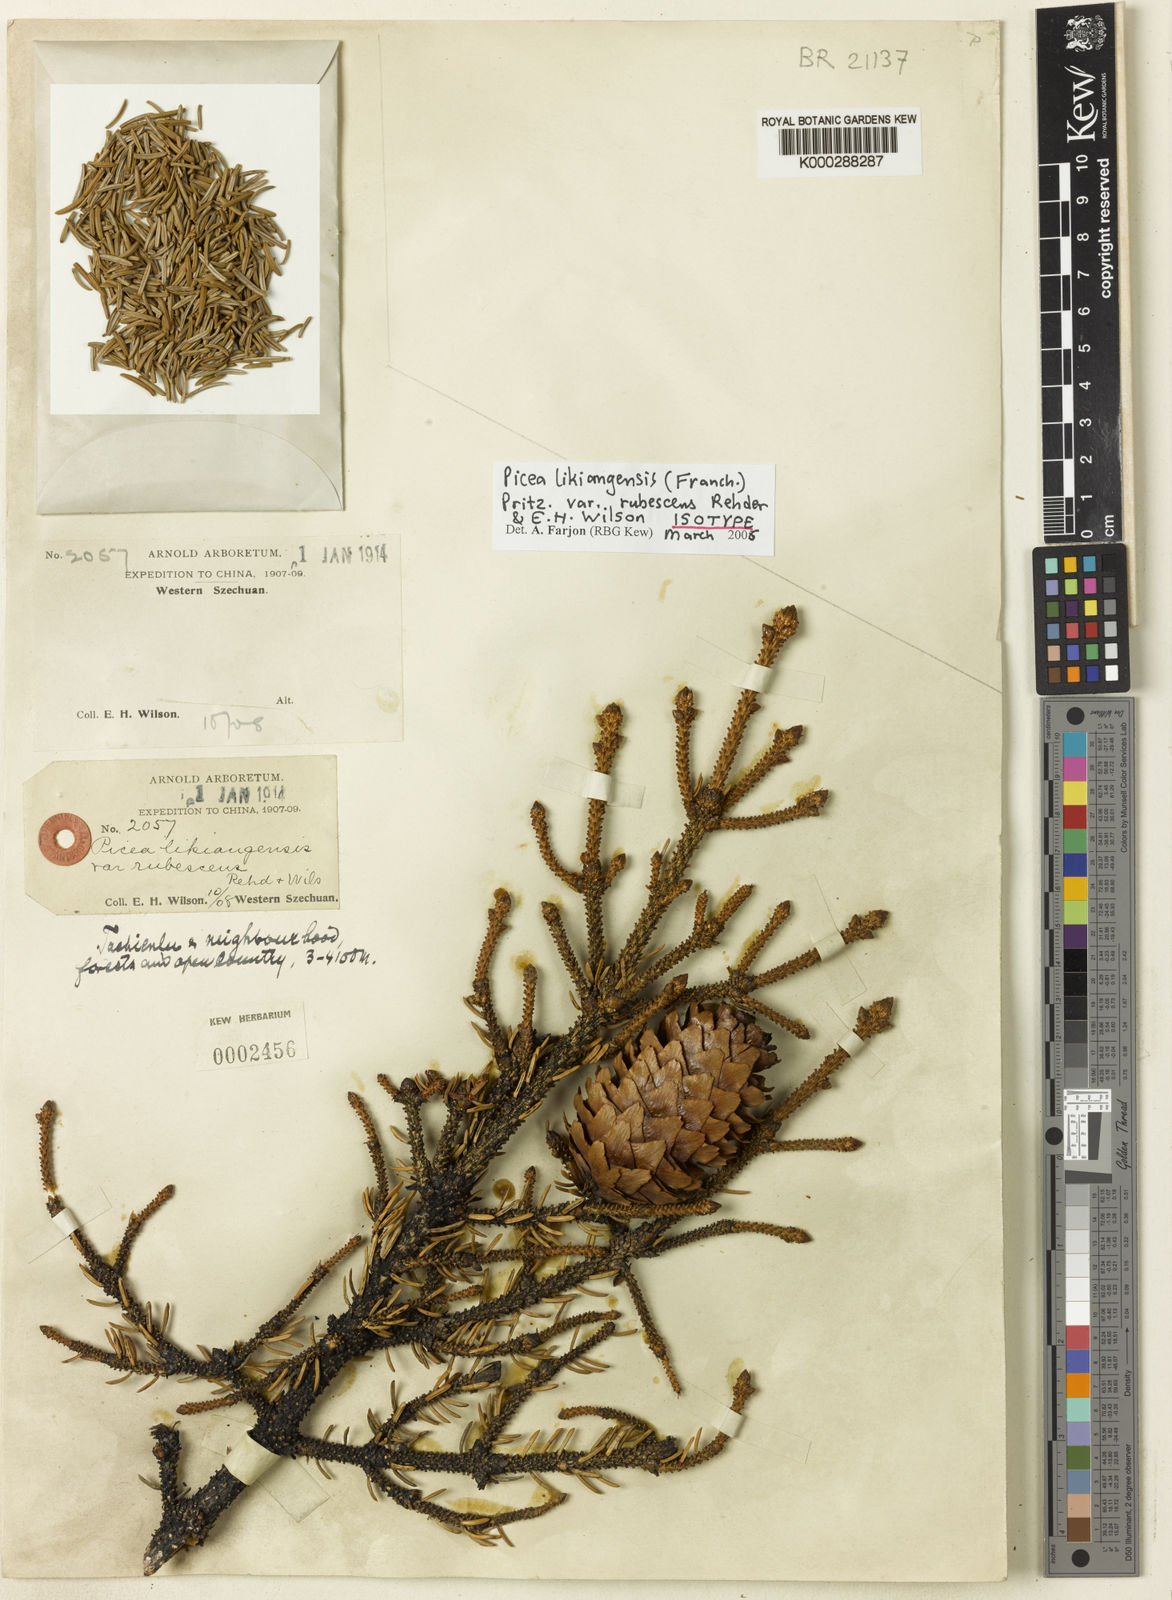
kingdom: Plantae
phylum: Tracheophyta
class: Pinopsida
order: Pinales
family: Pinaceae
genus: Picea
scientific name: Picea likiangensis
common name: Likiang spruce
